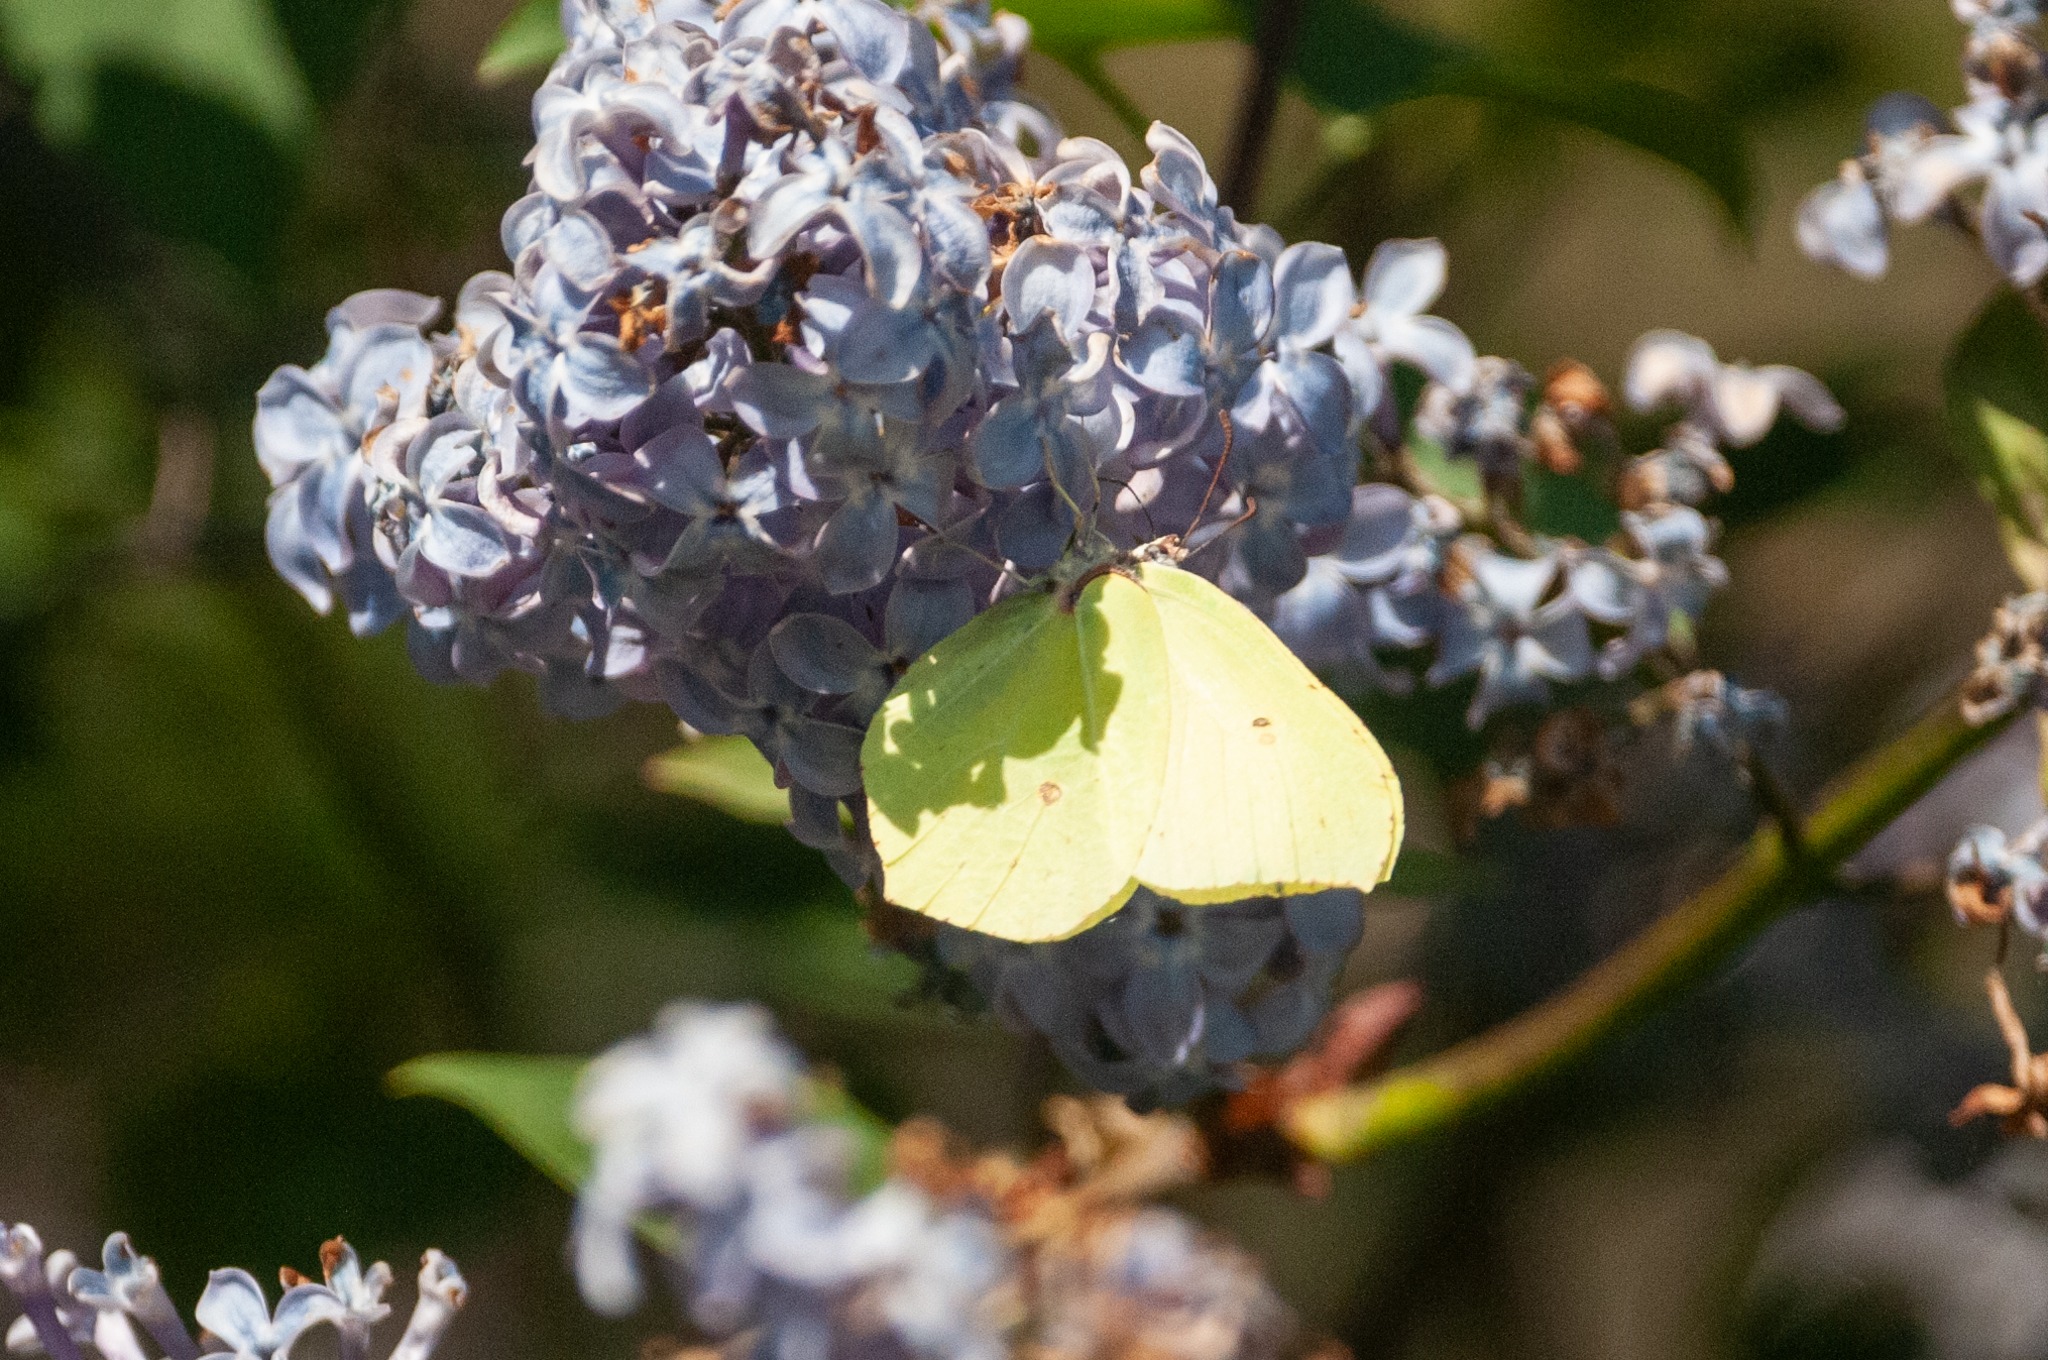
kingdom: Animalia
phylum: Arthropoda
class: Insecta
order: Lepidoptera
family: Pieridae
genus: Gonepteryx
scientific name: Gonepteryx rhamni
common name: Citronsommerfugl
